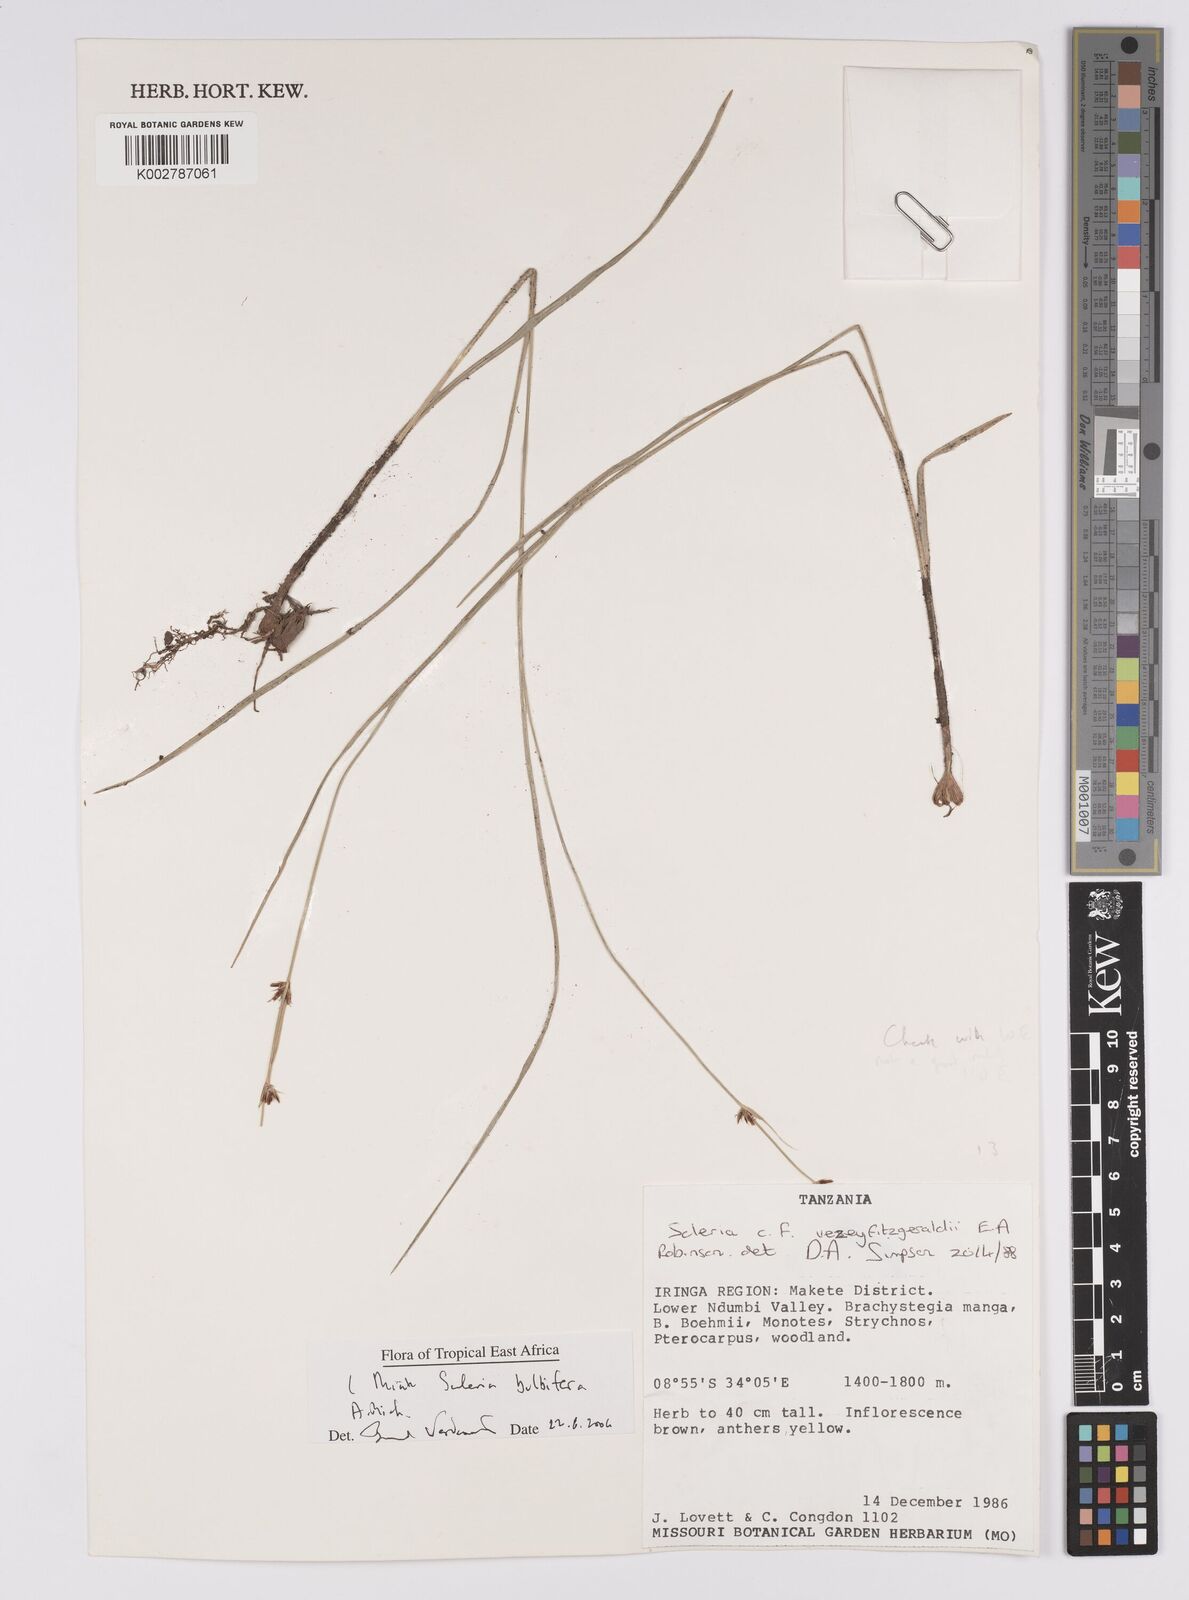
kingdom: Plantae
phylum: Tracheophyta
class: Liliopsida
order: Poales
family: Cyperaceae
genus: Scleria
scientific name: Scleria bulbifera
